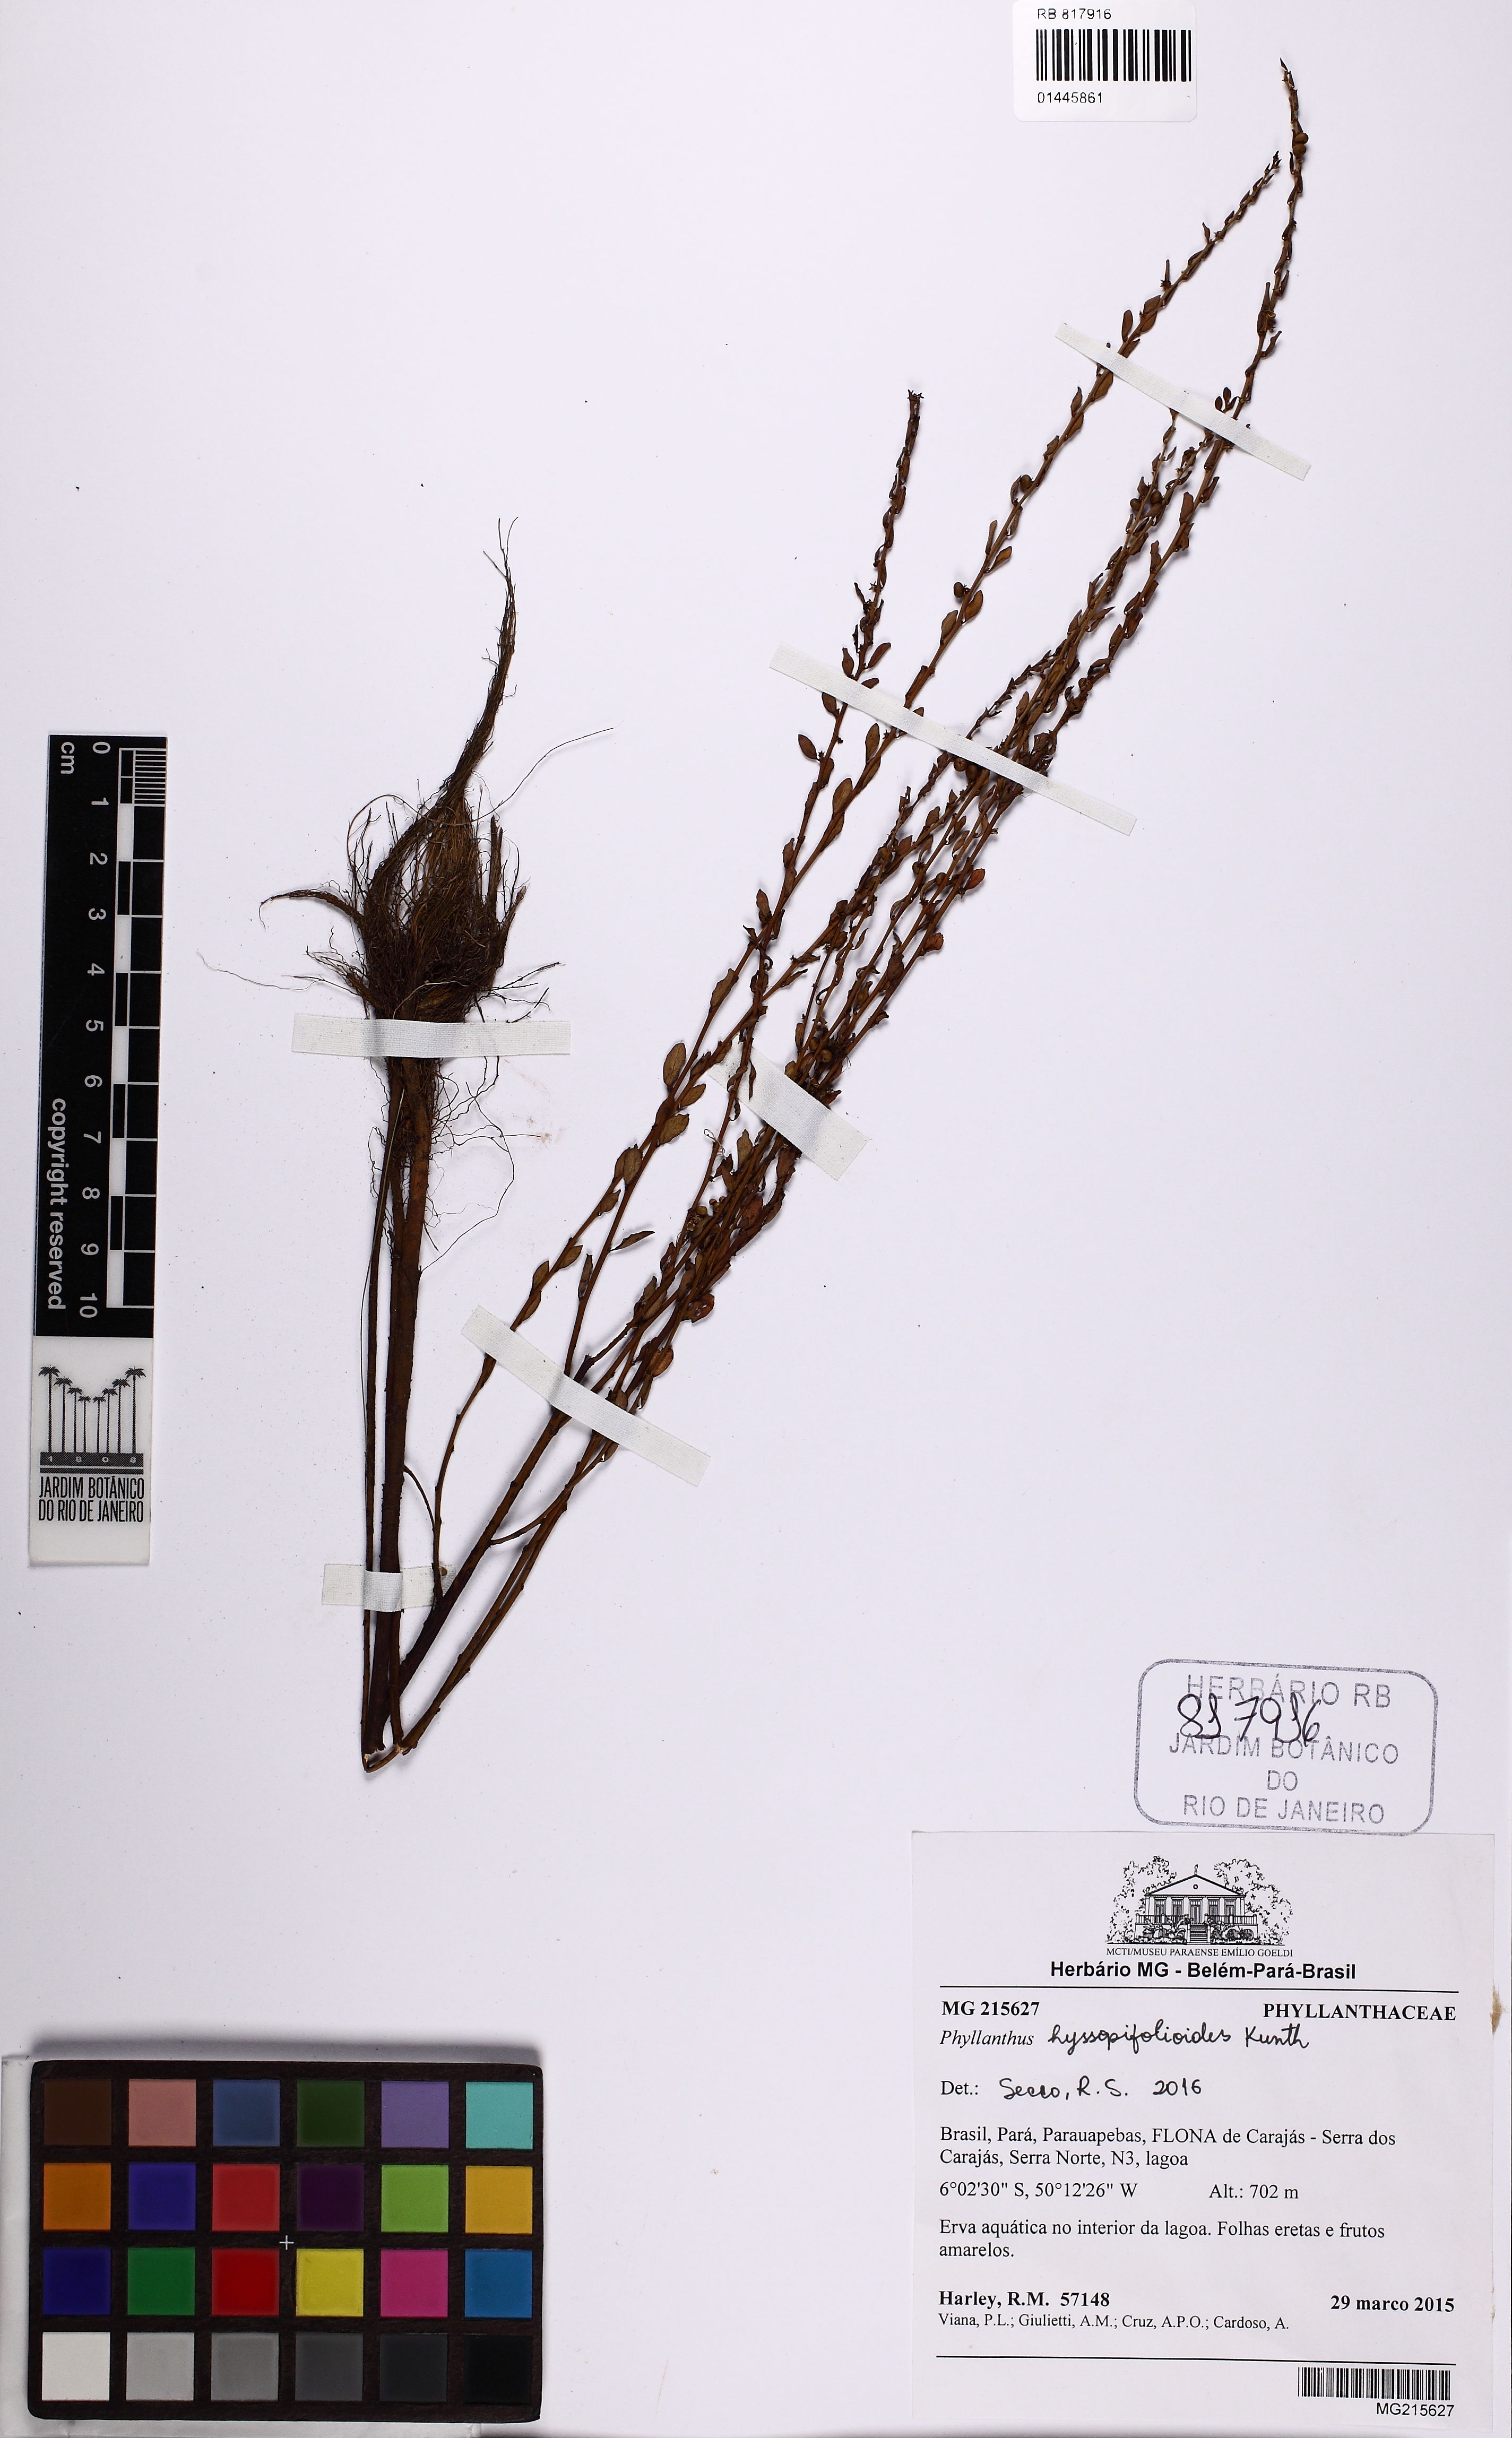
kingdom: Plantae
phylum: Tracheophyta
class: Magnoliopsida
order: Malpighiales
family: Phyllanthaceae
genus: Phyllanthus
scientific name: Phyllanthus hyssopifolioides
